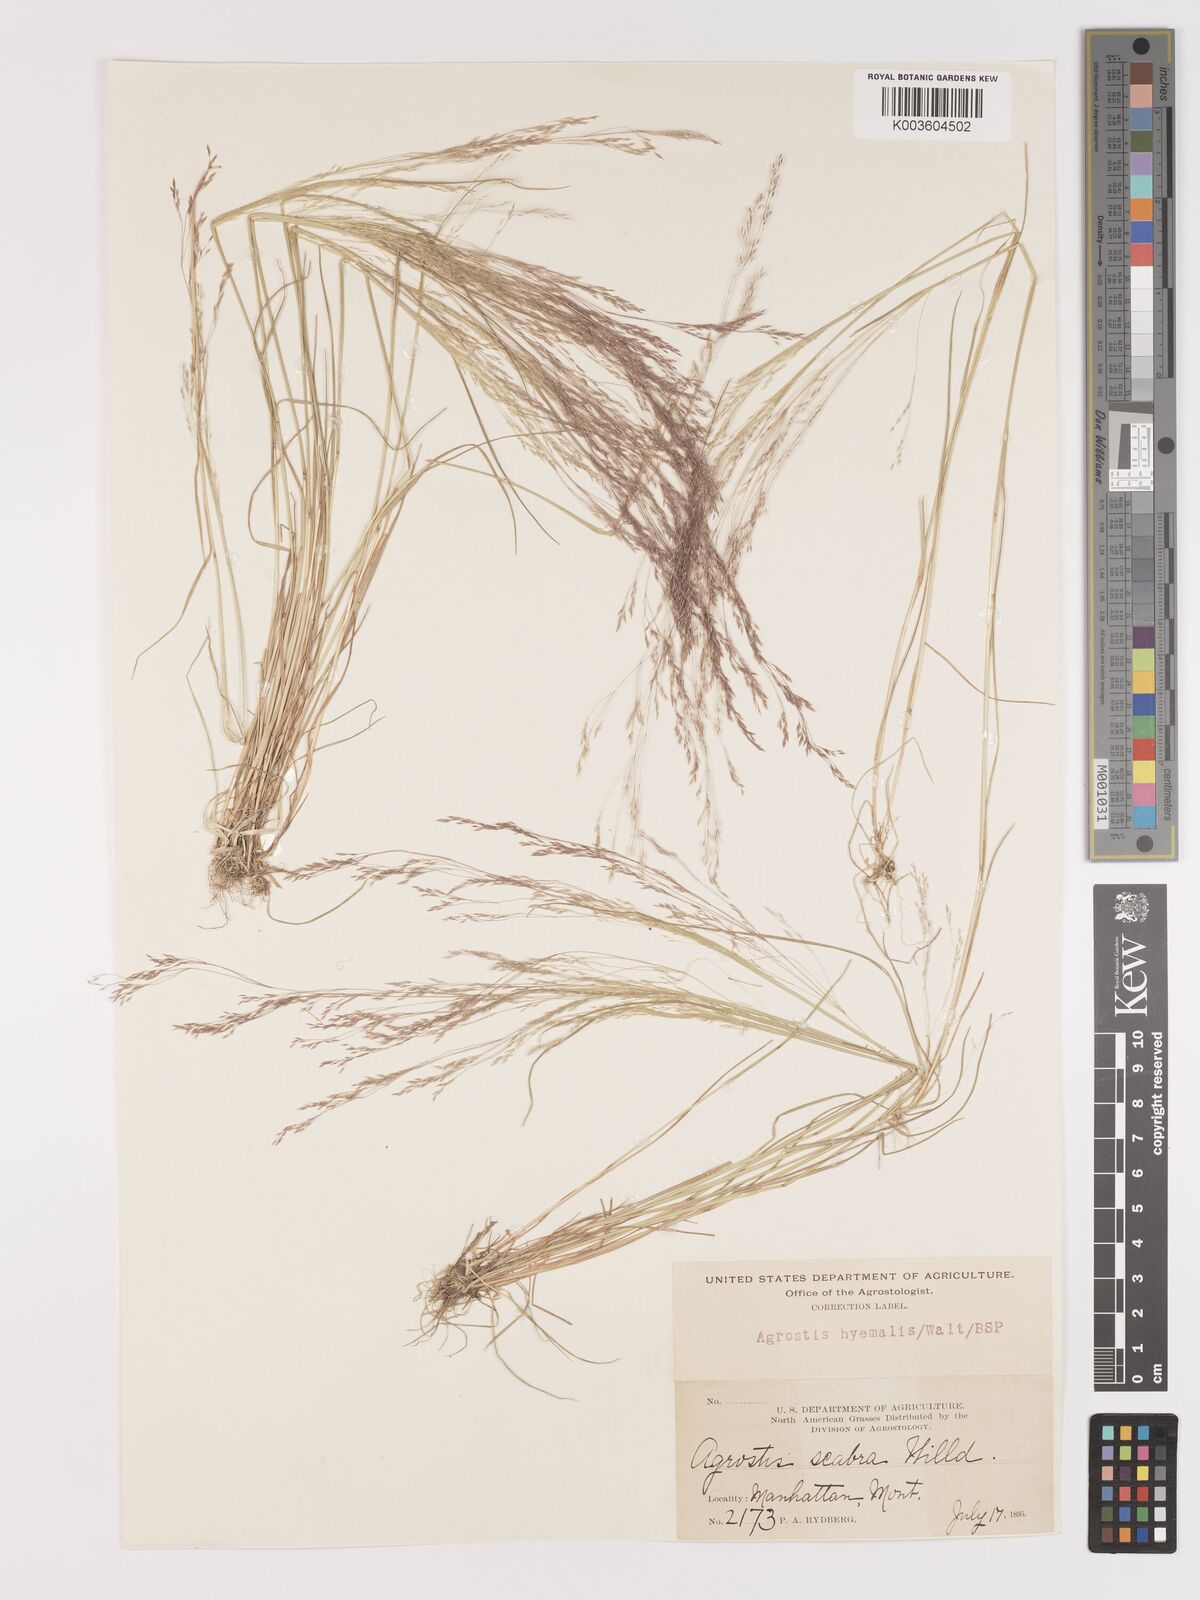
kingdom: Plantae
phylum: Tracheophyta
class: Liliopsida
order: Poales
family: Poaceae
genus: Agrostis
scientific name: Agrostis hyemalis
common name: Small bent
